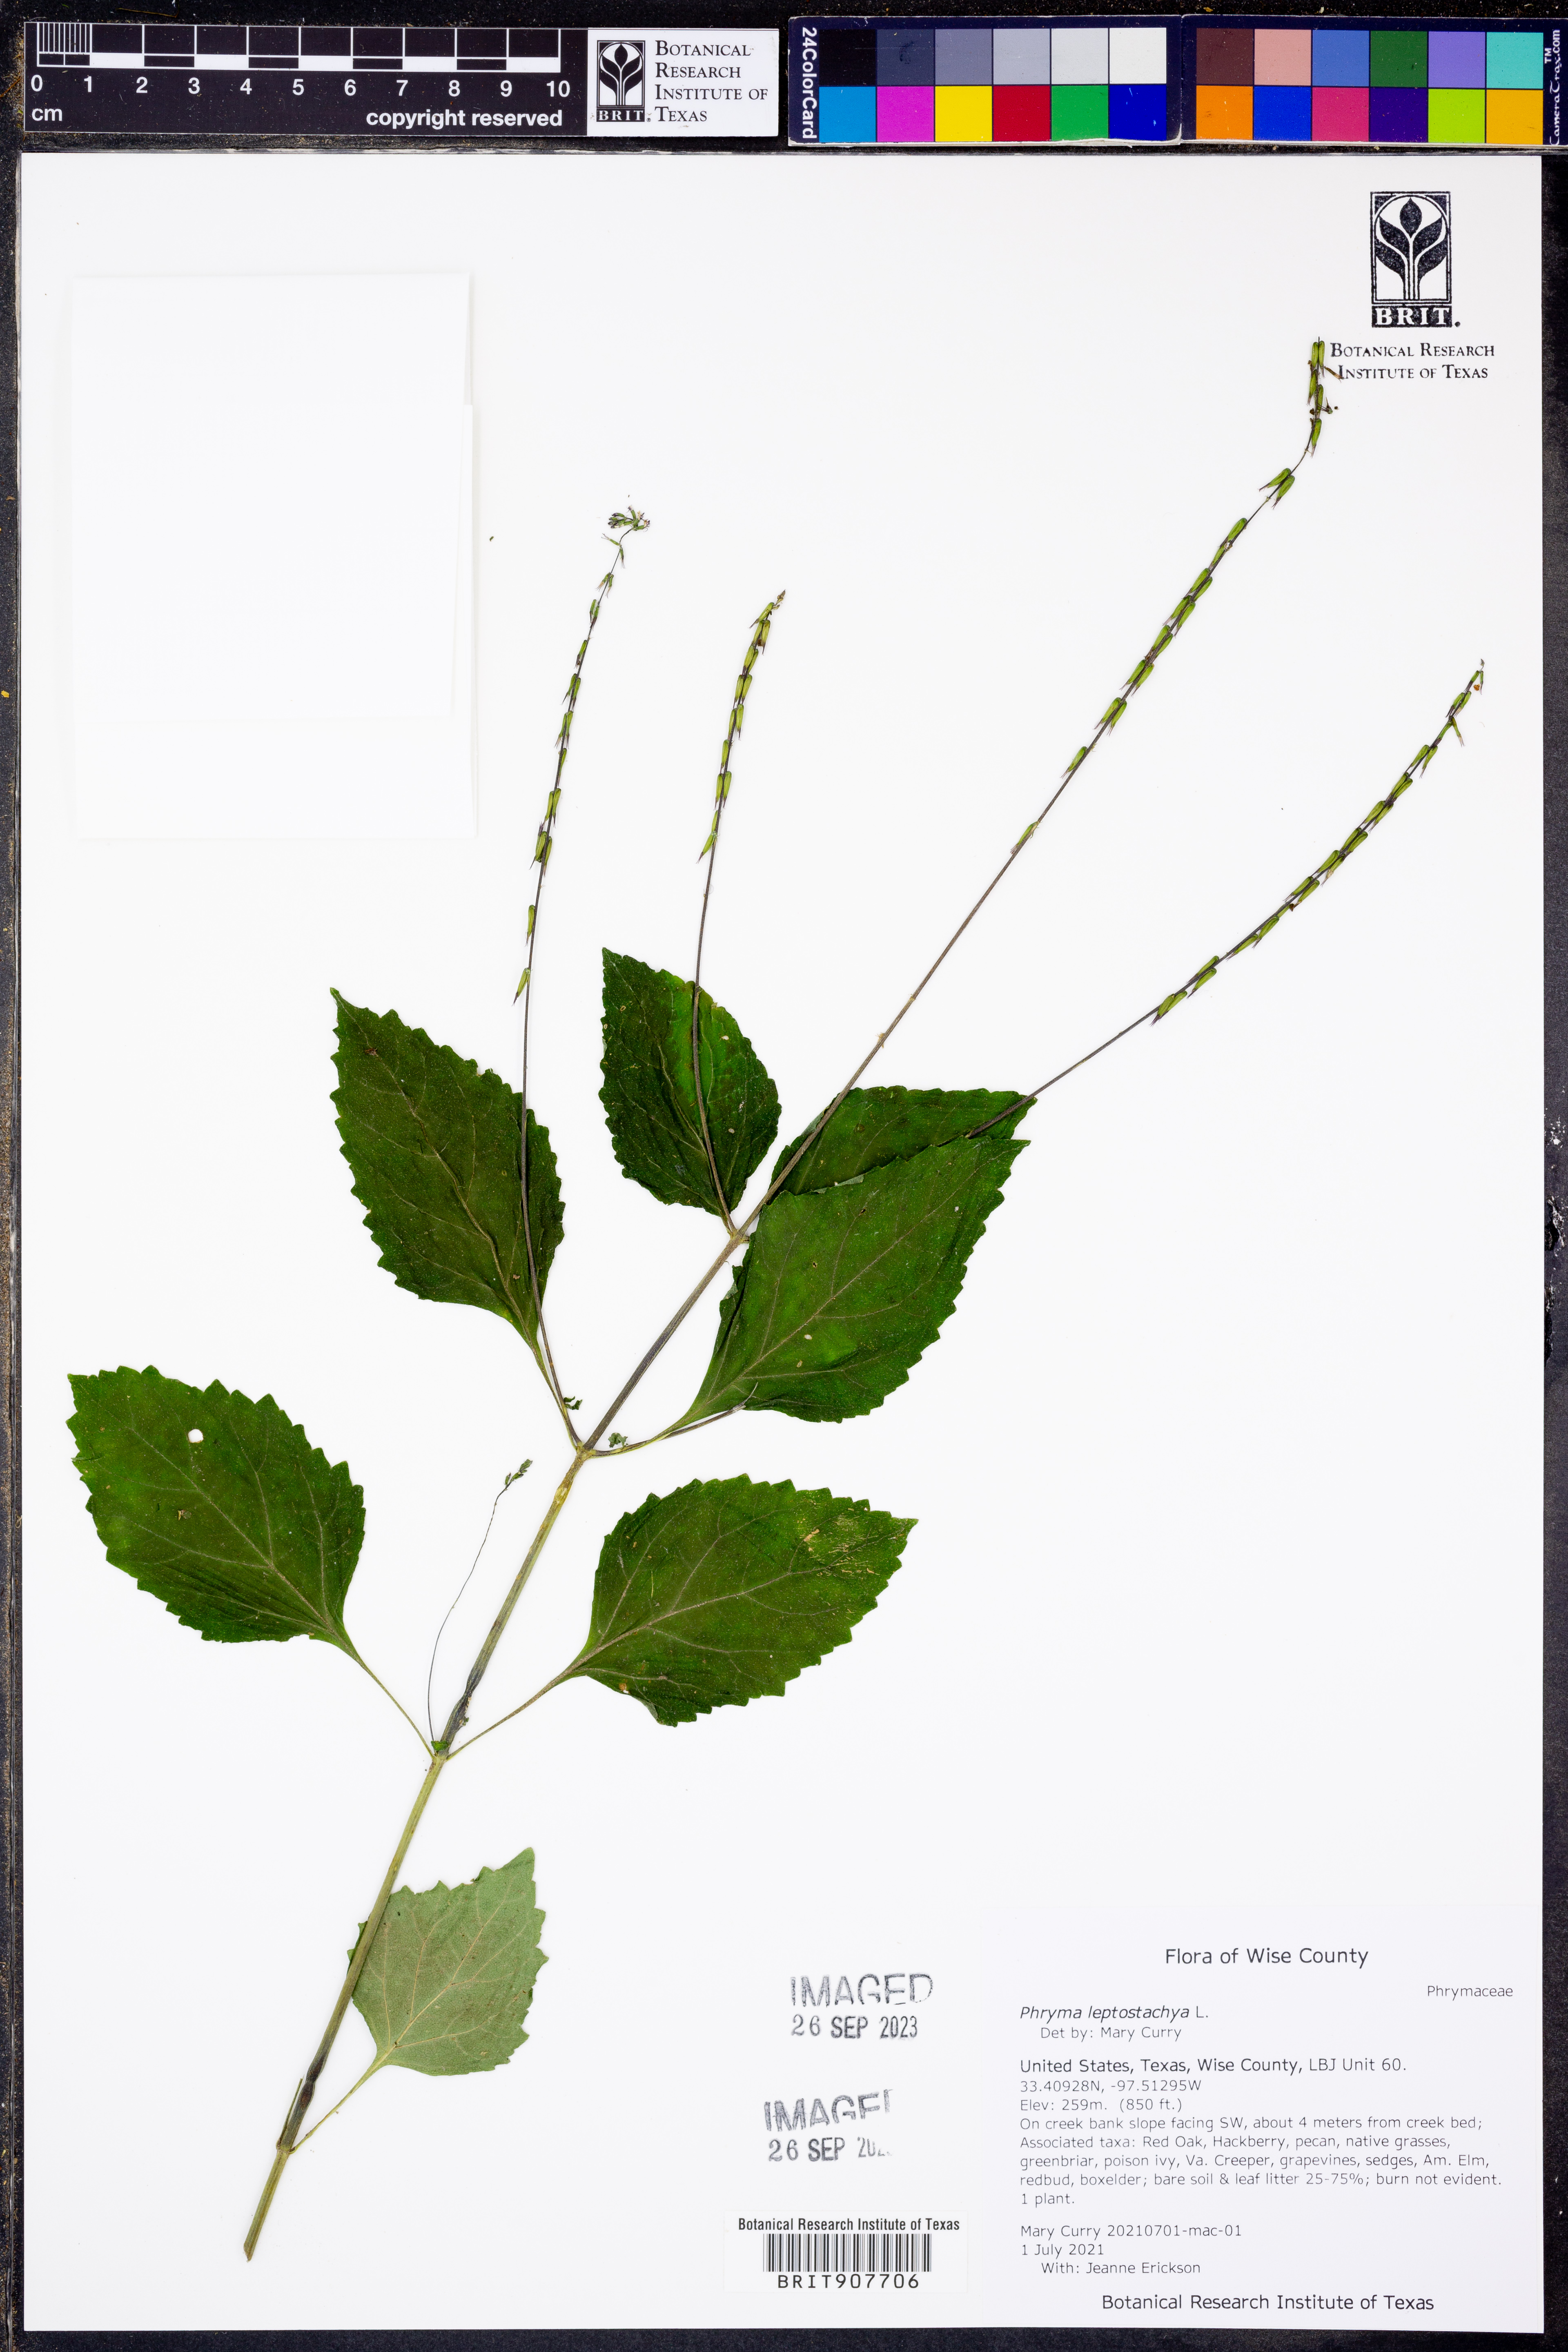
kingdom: Plantae
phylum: Tracheophyta
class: Magnoliopsida
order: Lamiales
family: Phrymaceae
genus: Phryma
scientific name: Phryma leptostachya
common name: American lopseed
